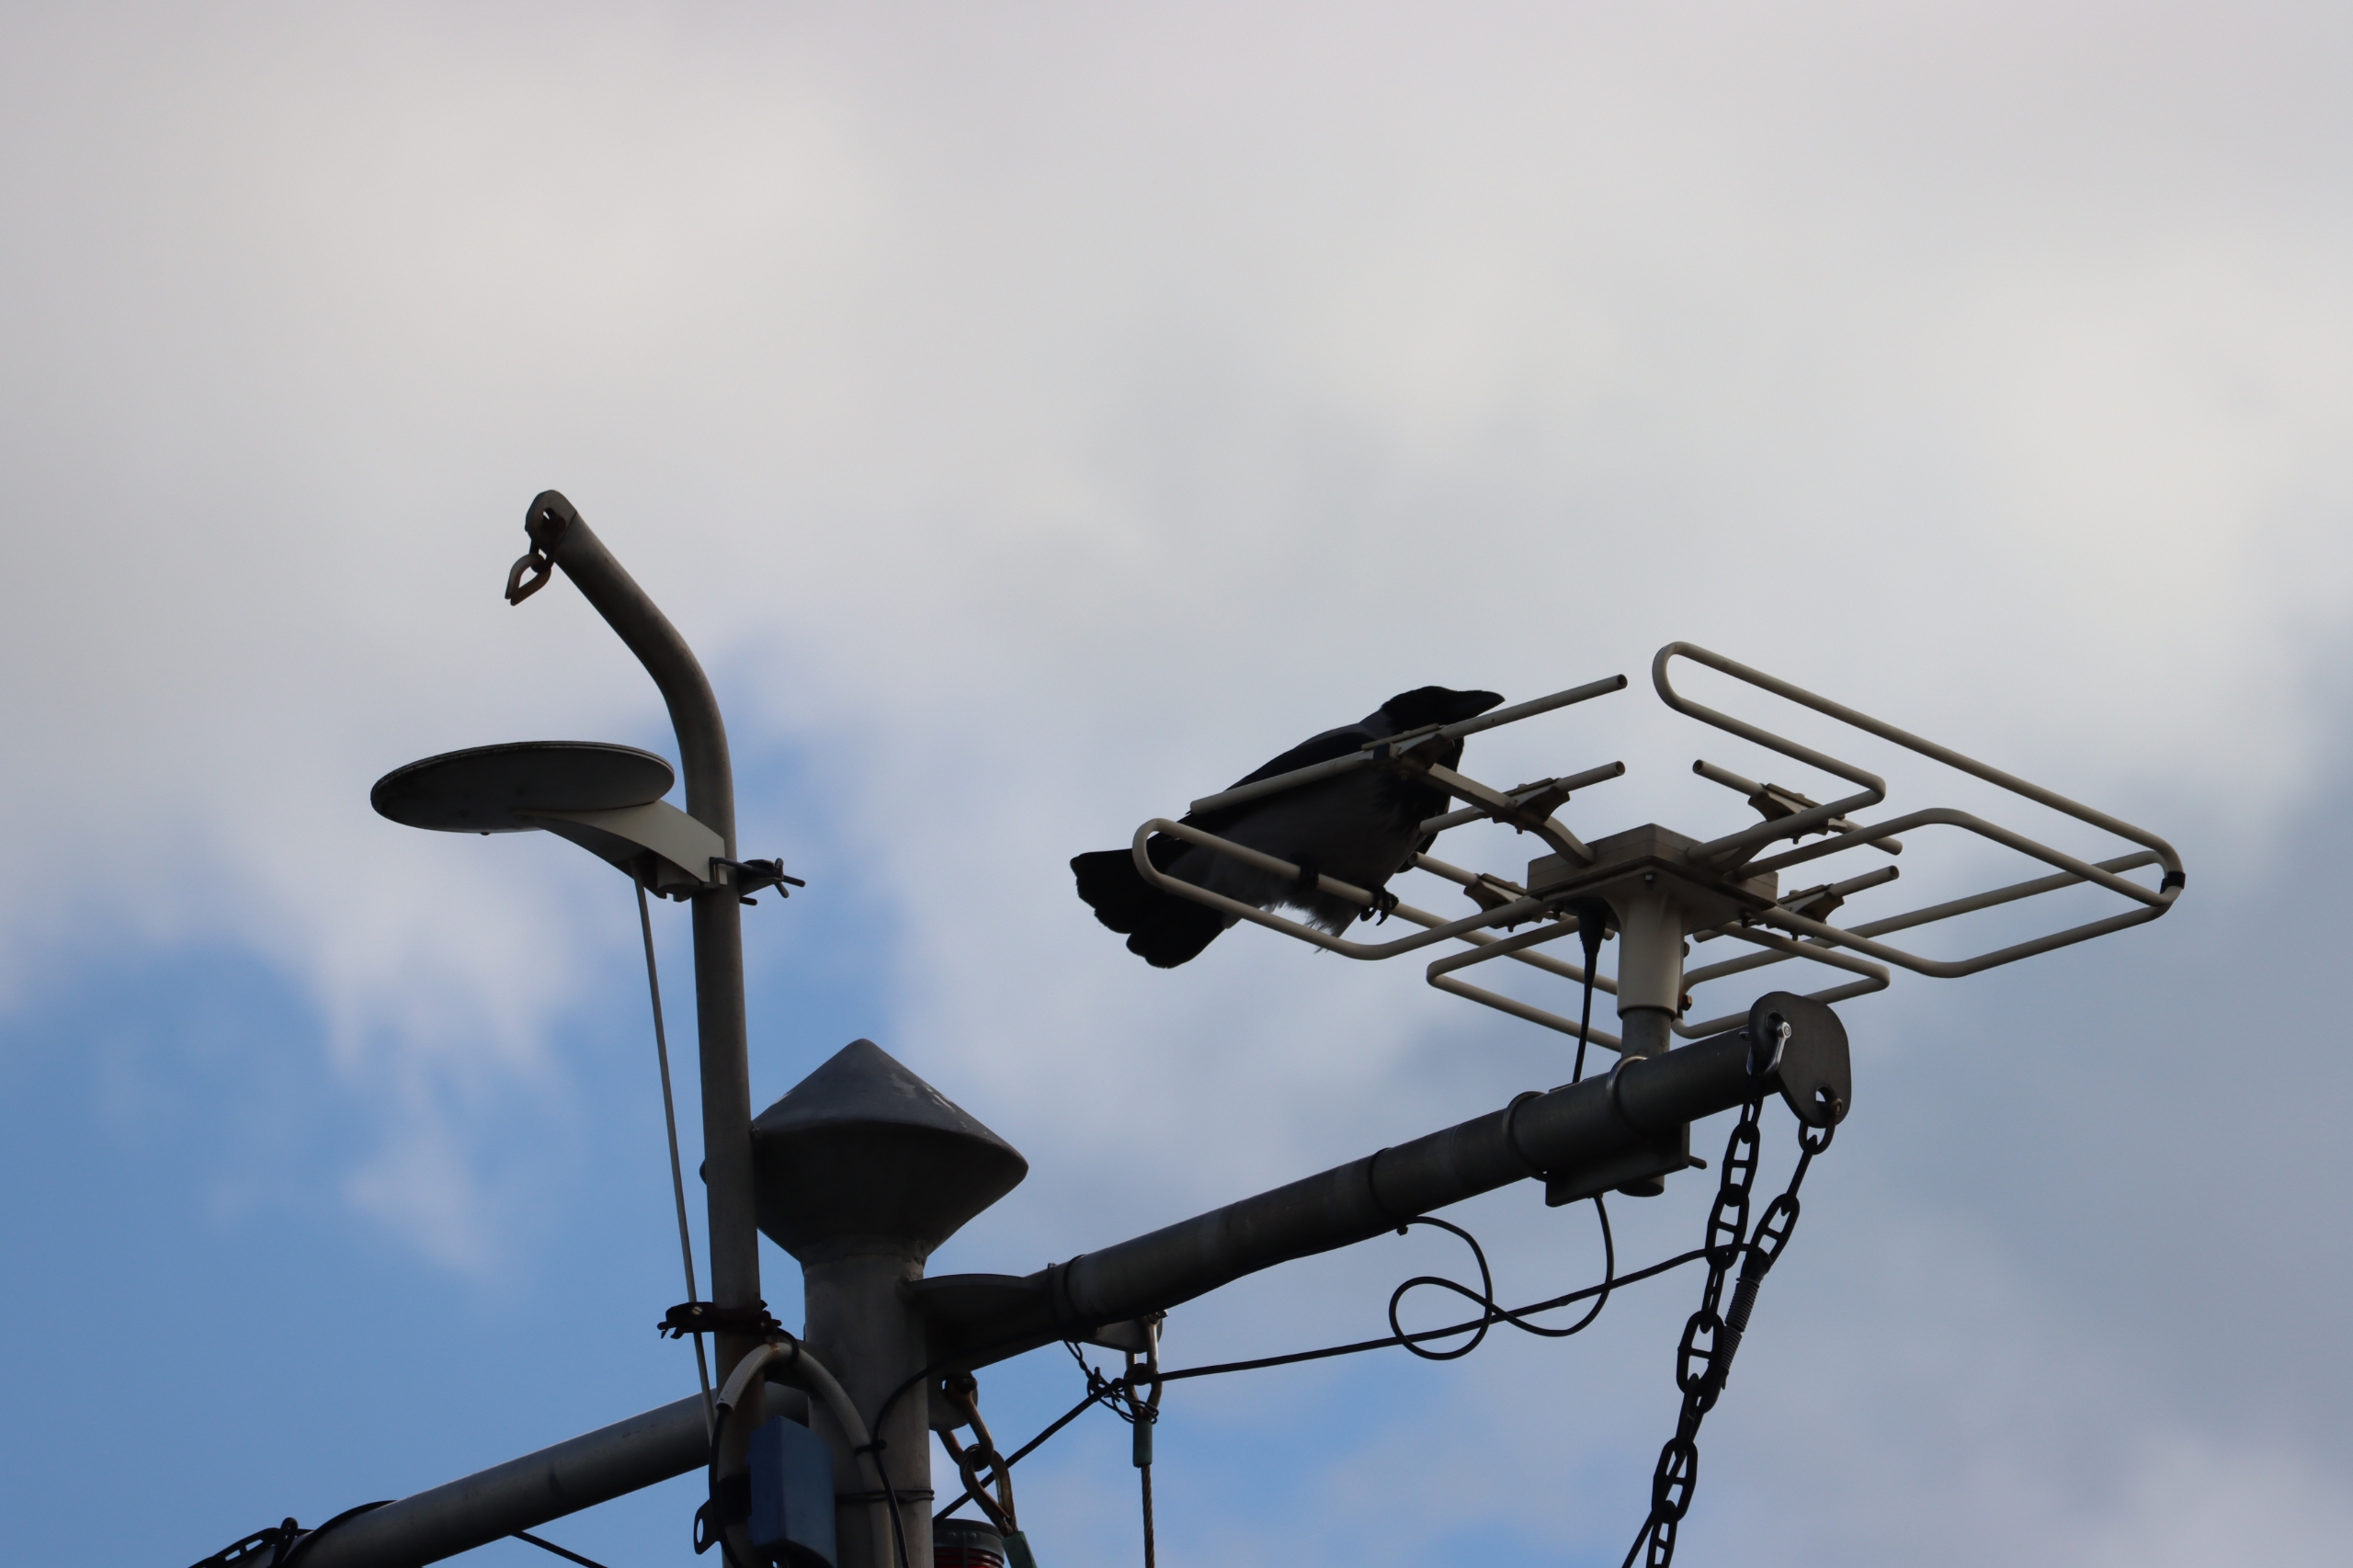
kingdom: Animalia
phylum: Chordata
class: Aves
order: Passeriformes
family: Corvidae
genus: Corvus
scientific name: Corvus cornix
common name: Gråkrage
